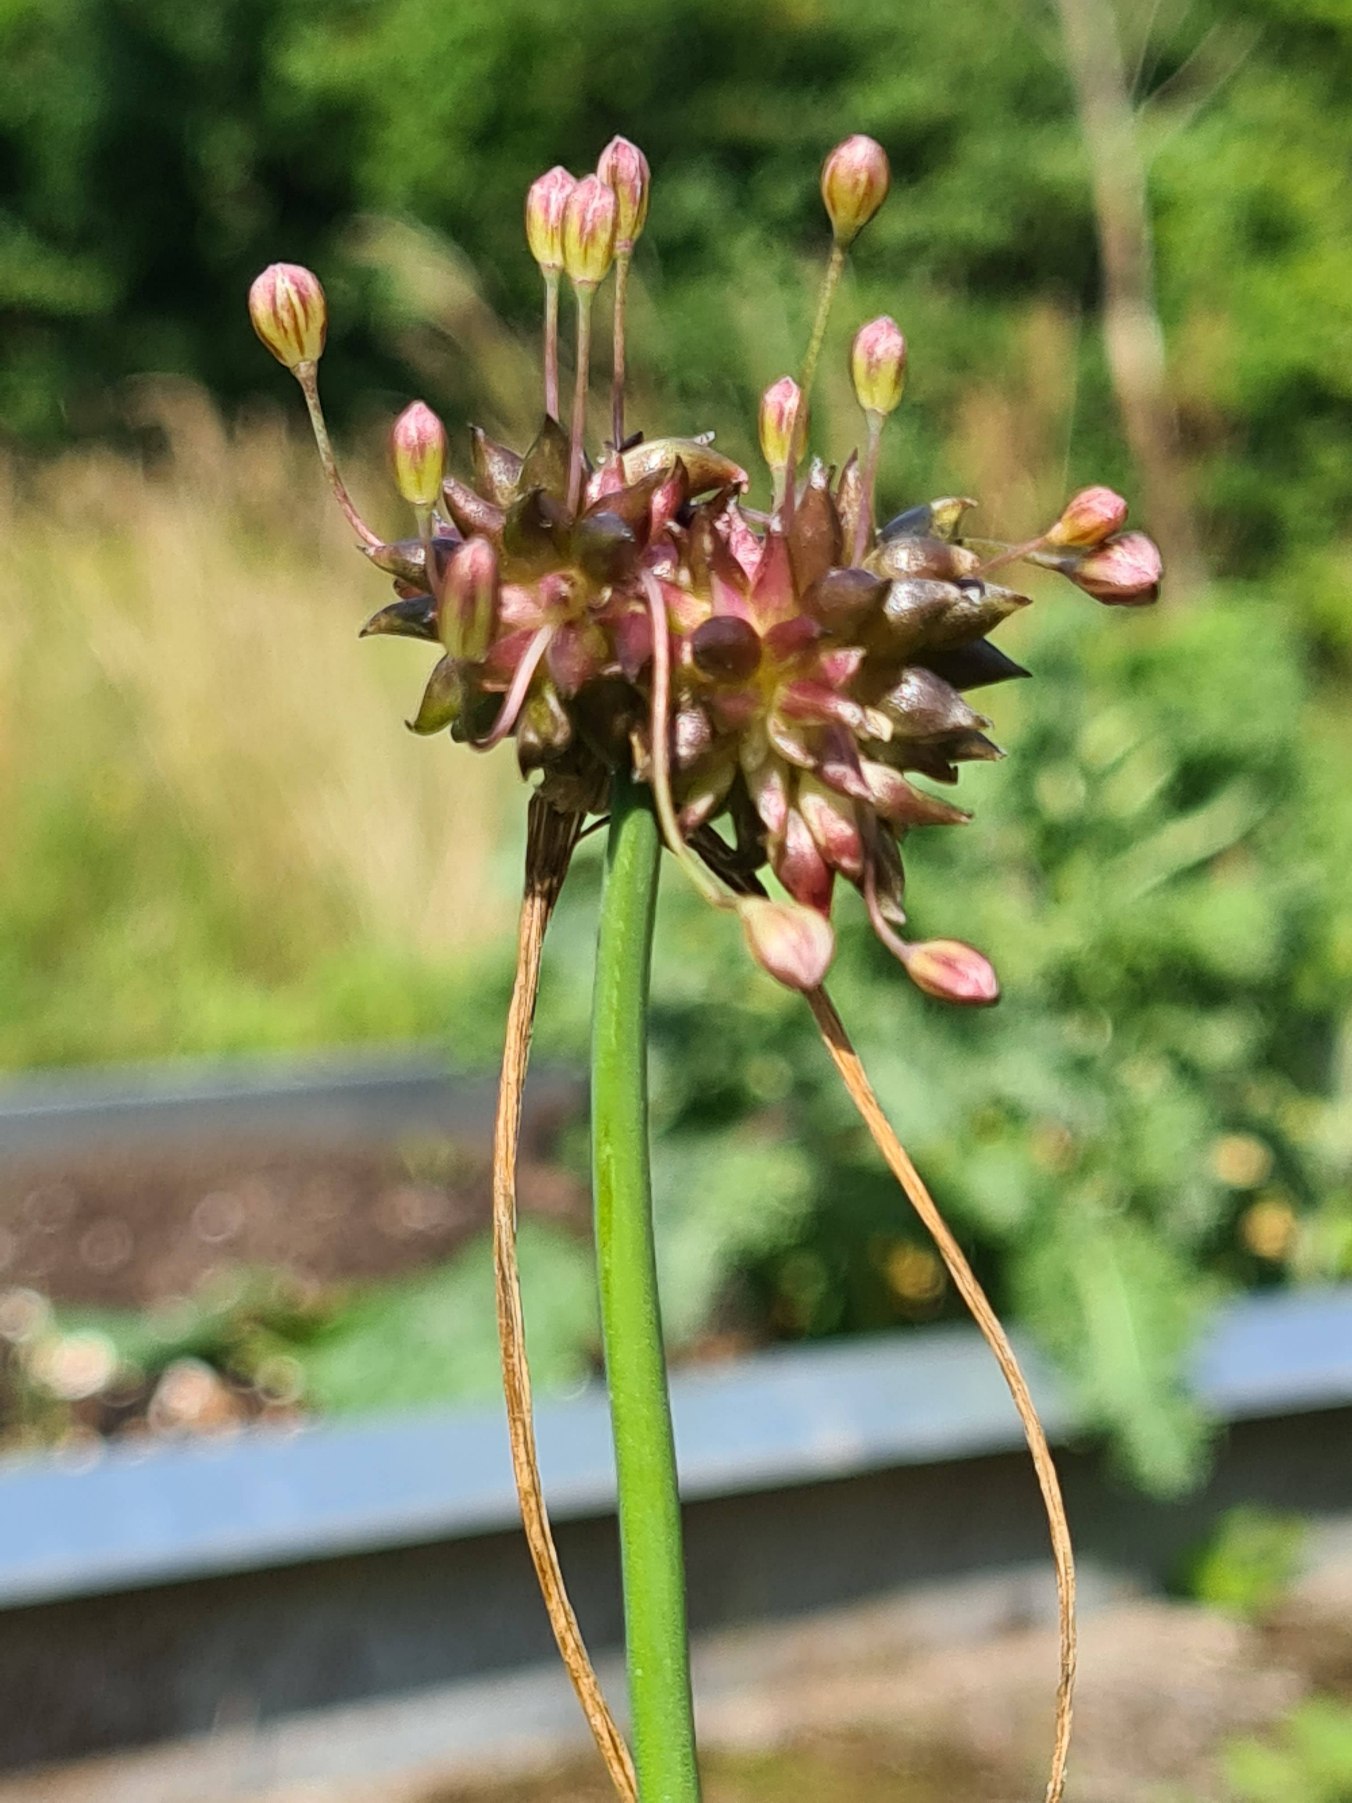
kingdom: Plantae
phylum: Tracheophyta
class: Liliopsida
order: Asparagales
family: Amaryllidaceae
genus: Allium
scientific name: Allium oleraceum
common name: Vild løg
